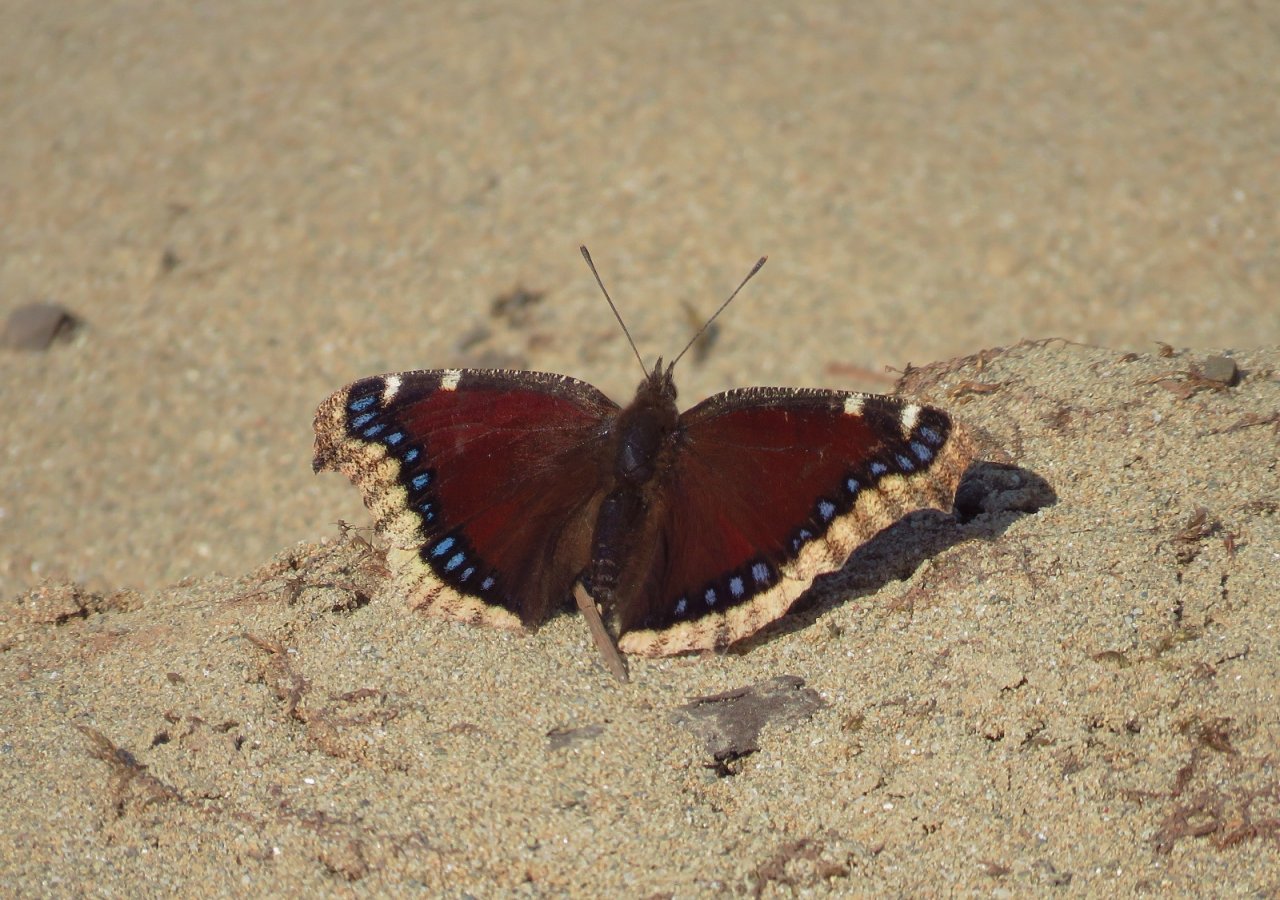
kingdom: Animalia
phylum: Arthropoda
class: Insecta
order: Lepidoptera
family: Nymphalidae
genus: Nymphalis
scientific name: Nymphalis antiopa
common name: Mourning Cloak
